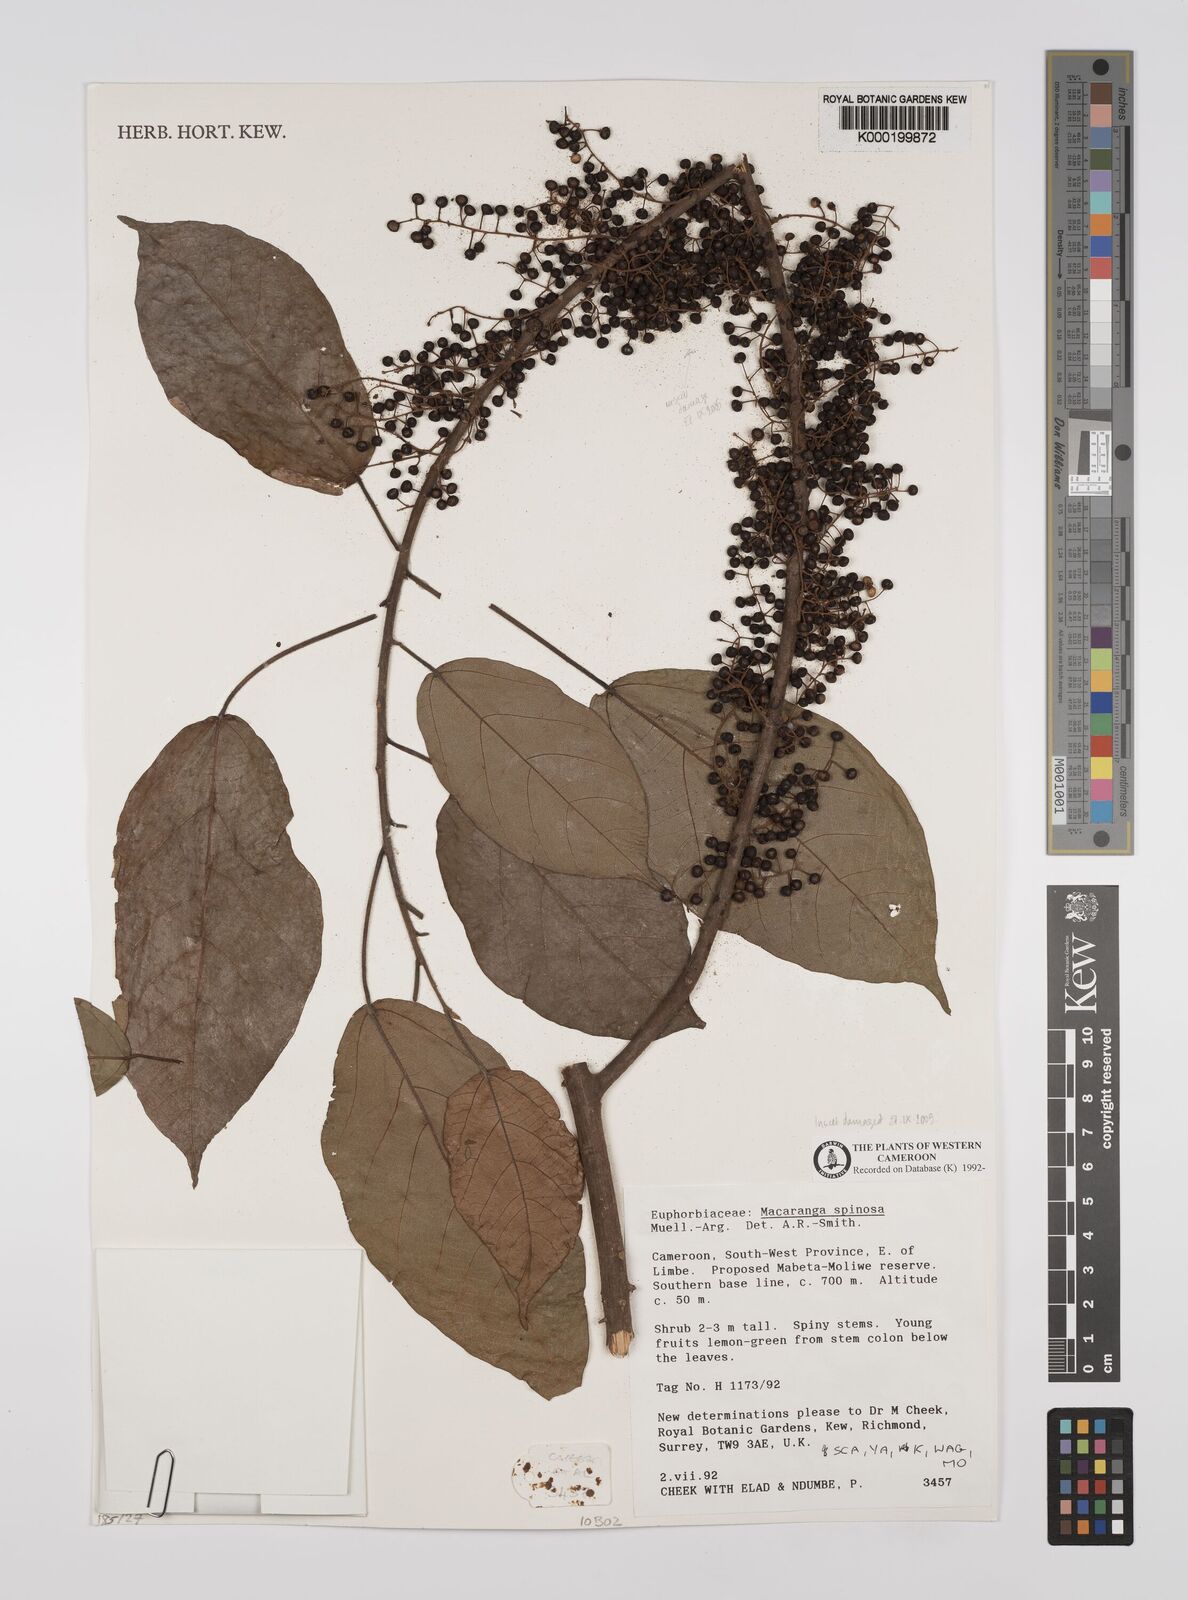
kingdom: Plantae
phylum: Tracheophyta
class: Magnoliopsida
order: Malpighiales
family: Euphorbiaceae
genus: Macaranga
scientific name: Macaranga
